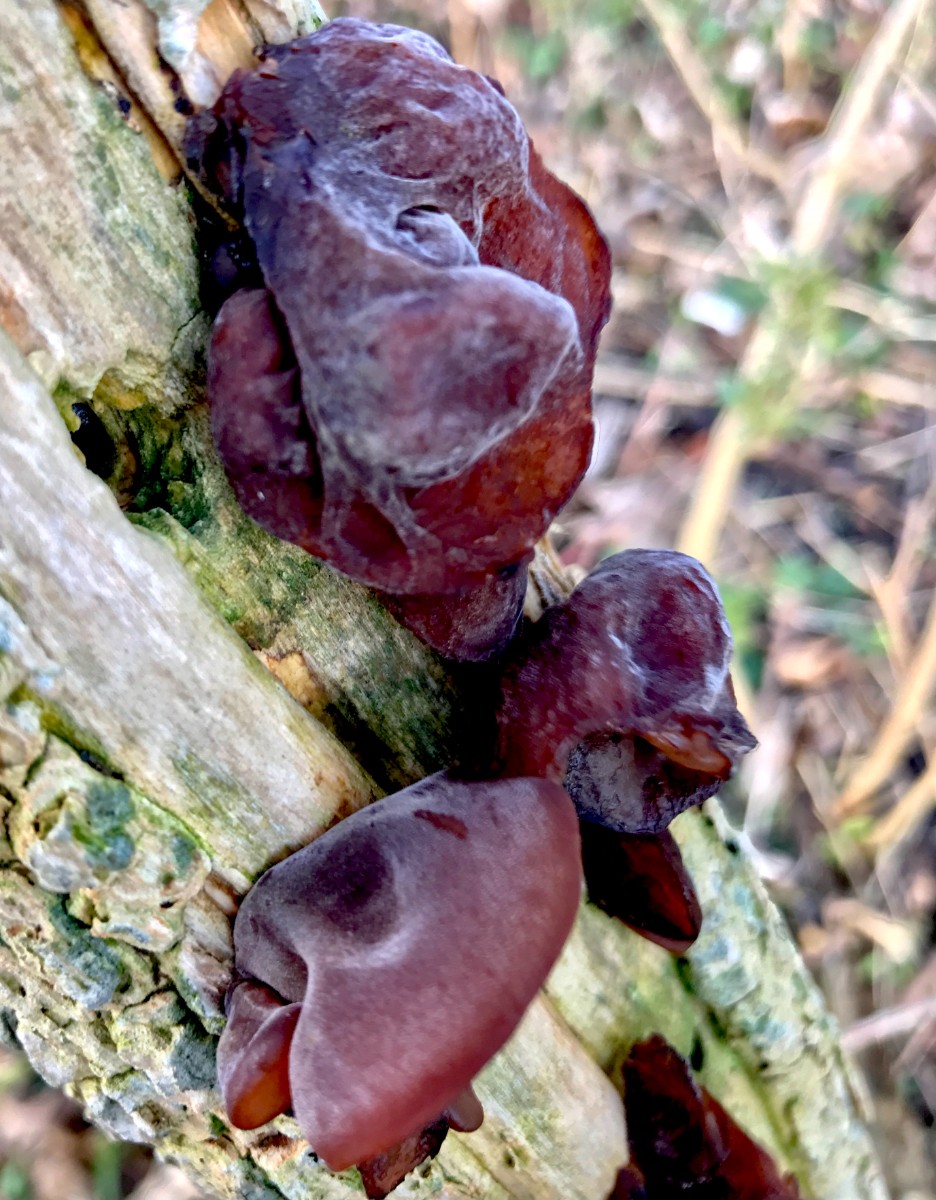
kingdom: Fungi
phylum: Basidiomycota
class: Agaricomycetes
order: Auriculariales
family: Auriculariaceae
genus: Auricularia
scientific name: Auricularia auricula-judae
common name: almindelig judasøre
